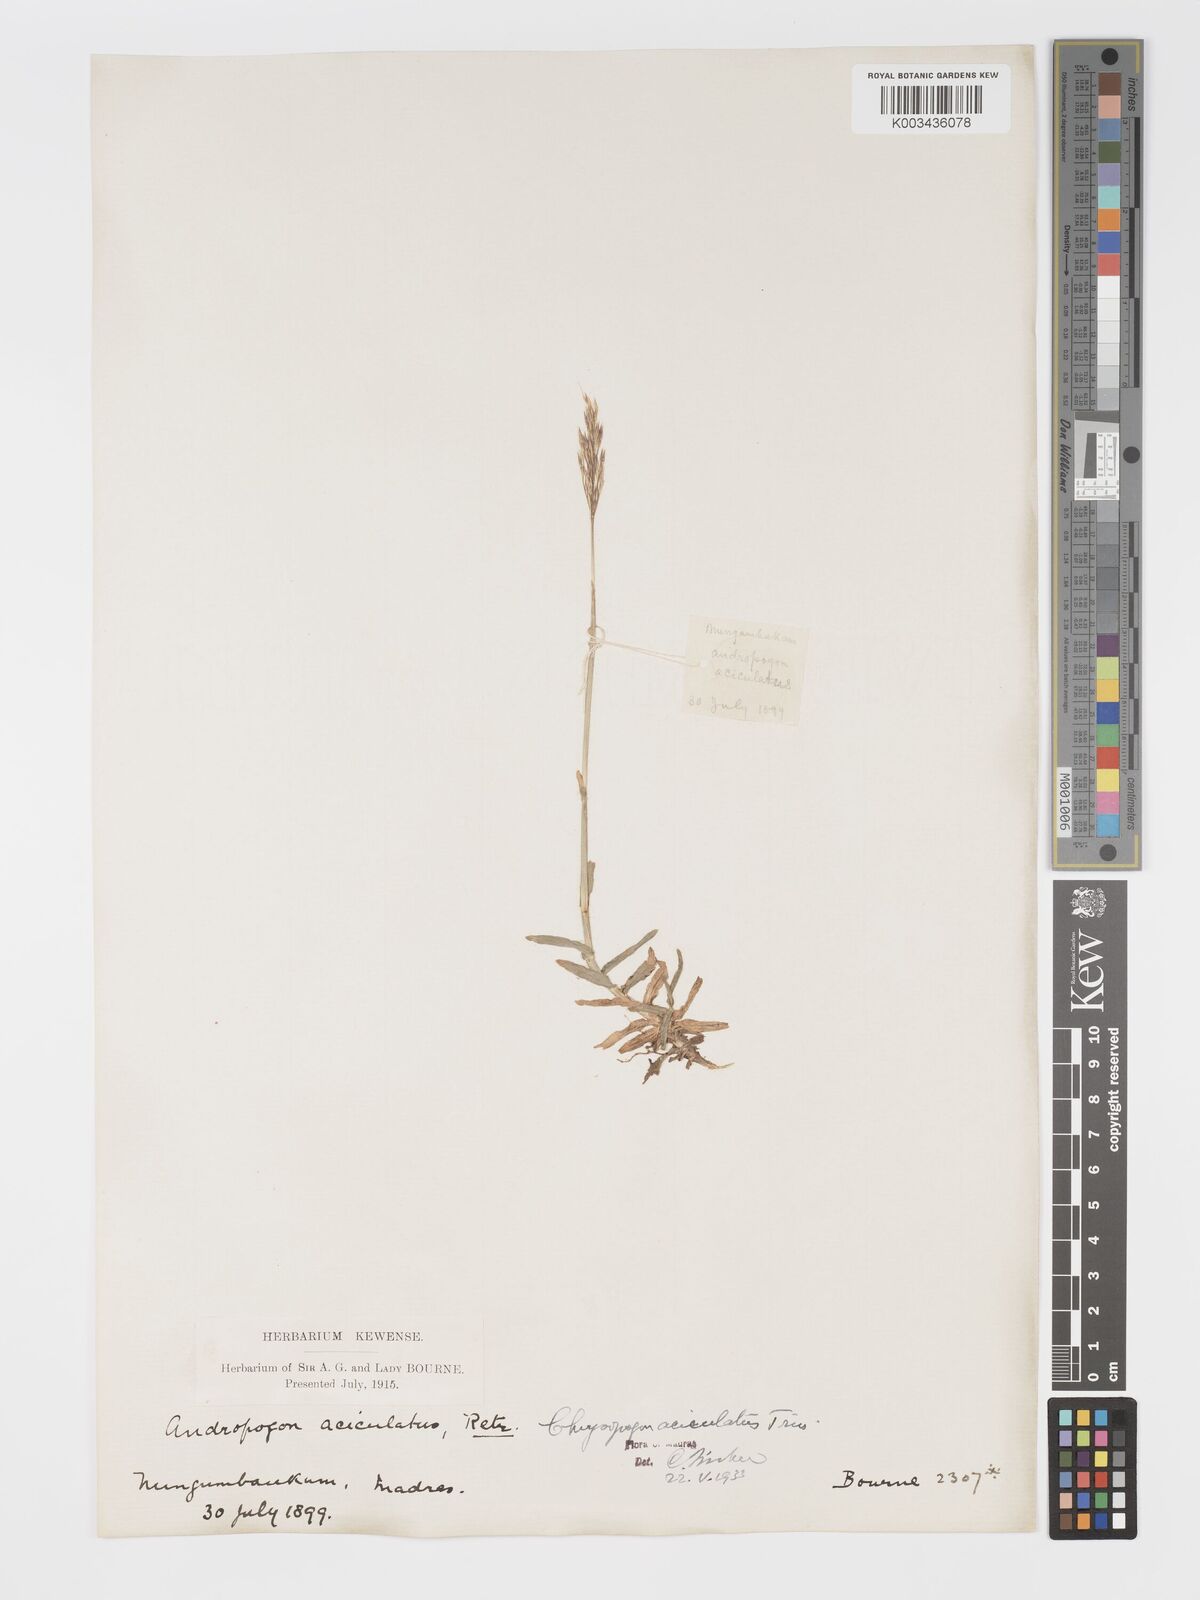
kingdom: Plantae
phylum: Tracheophyta
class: Liliopsida
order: Poales
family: Poaceae
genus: Chrysopogon
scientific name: Chrysopogon aciculatus
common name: Pilipiliula
